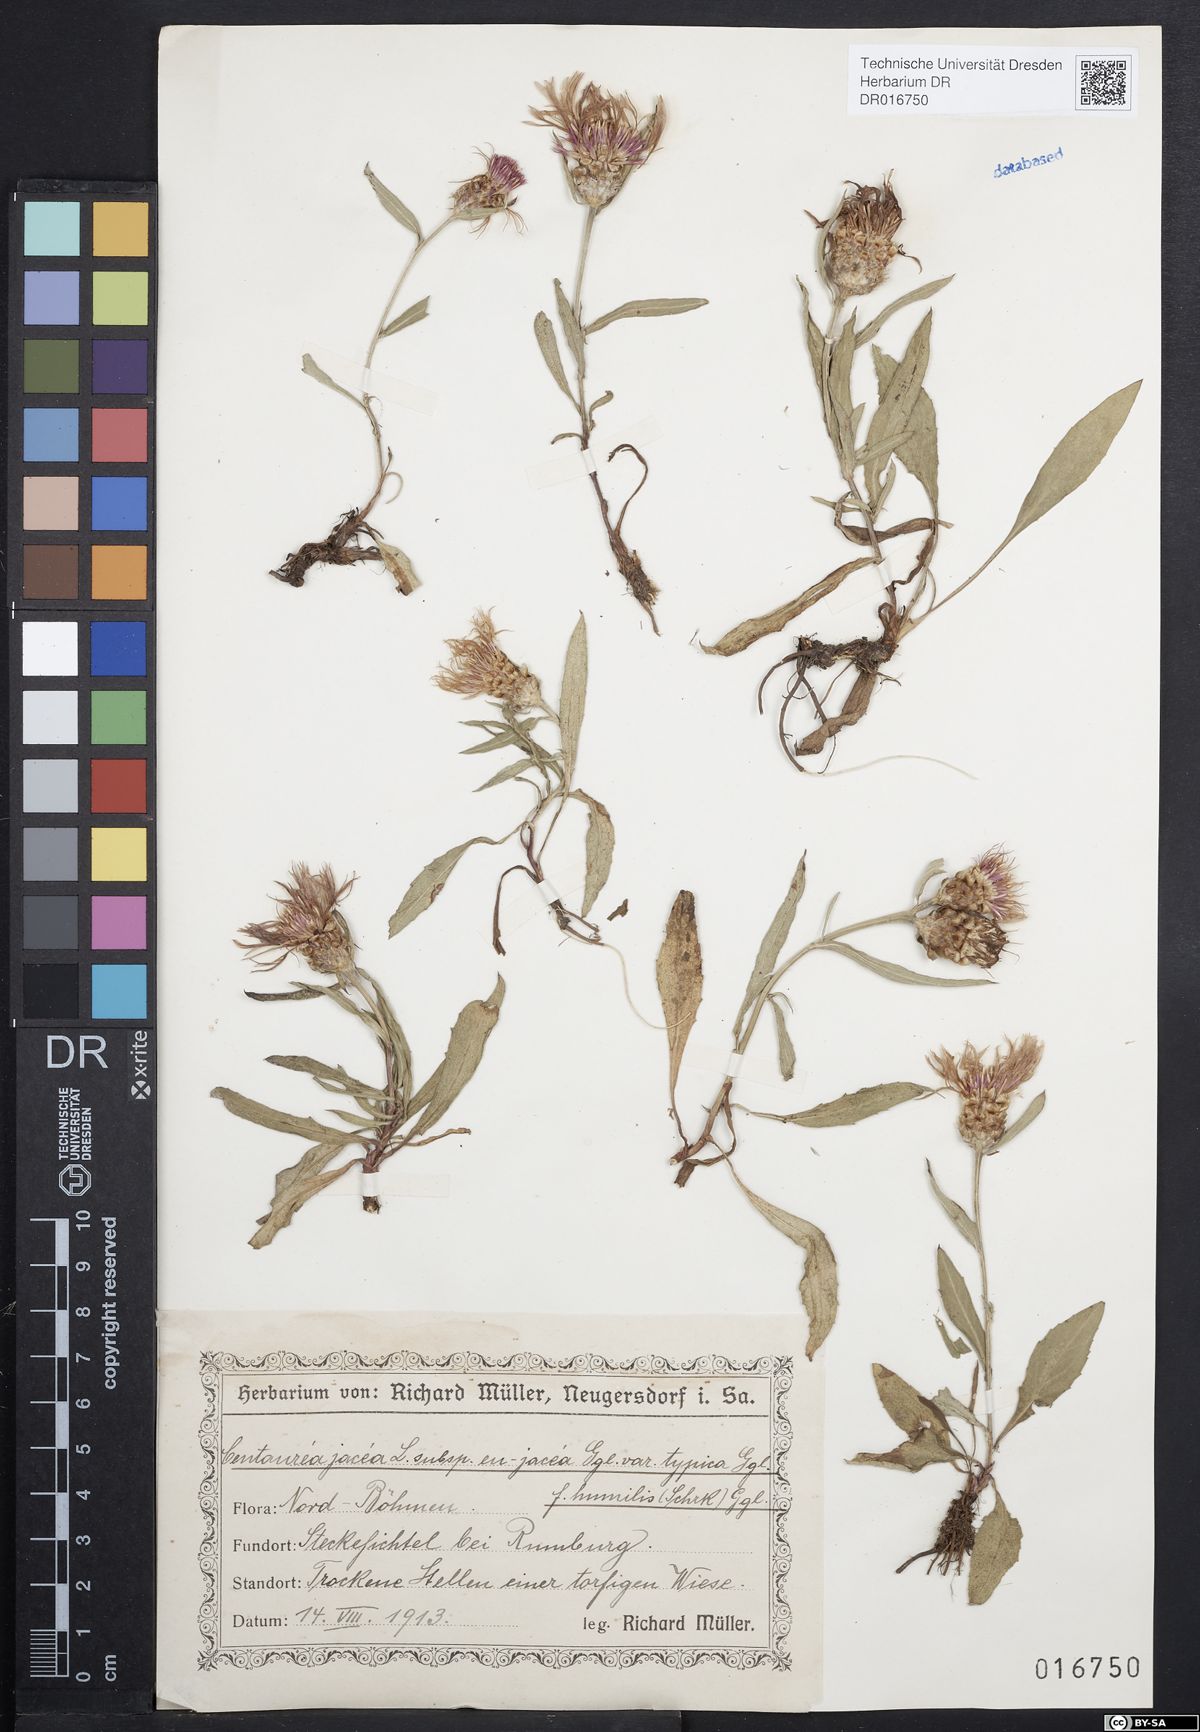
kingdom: Plantae
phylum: Tracheophyta
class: Magnoliopsida
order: Asterales
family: Asteraceae
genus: Centaurea
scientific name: Centaurea jacea
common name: Brown knapweed
